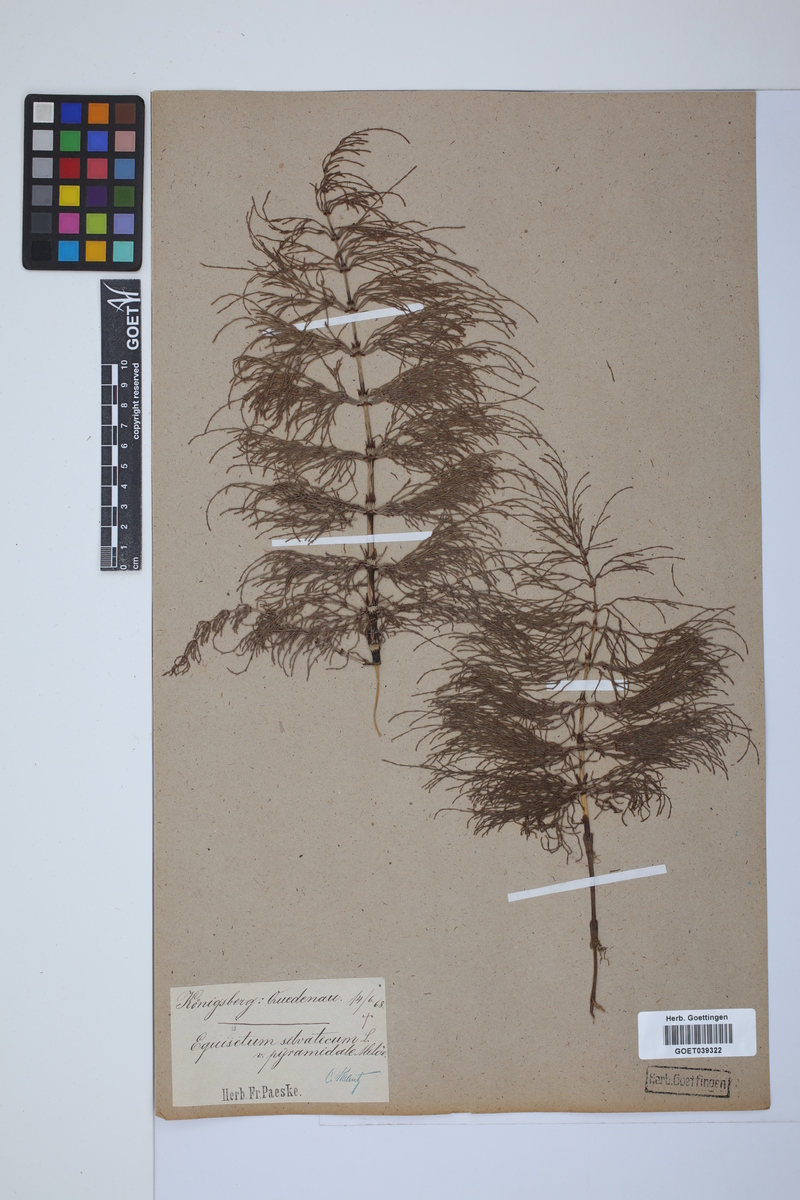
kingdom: Plantae
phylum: Tracheophyta
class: Polypodiopsida
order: Equisetales
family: Equisetaceae
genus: Equisetum
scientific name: Equisetum sylvaticum
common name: Wood horsetail
